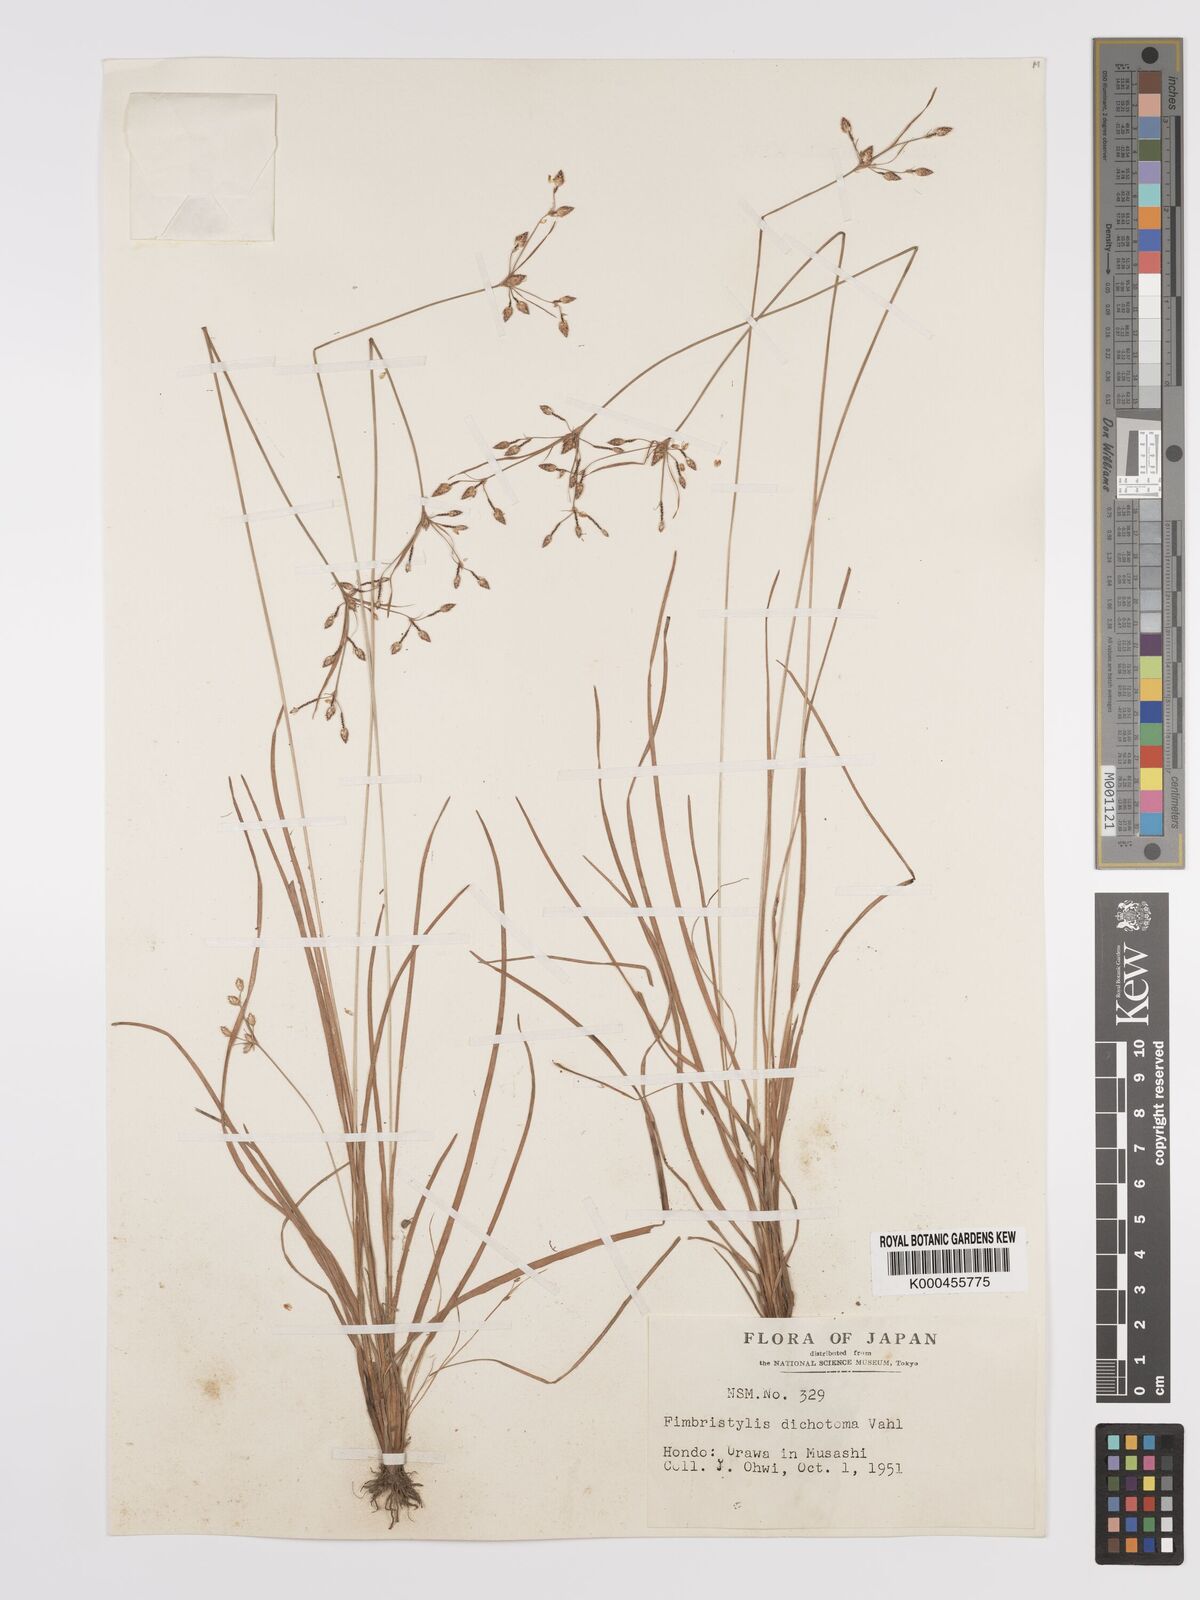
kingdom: Plantae
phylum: Tracheophyta
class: Liliopsida
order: Poales
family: Cyperaceae
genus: Fimbristylis
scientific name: Fimbristylis dichotoma
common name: Forked fimbry
